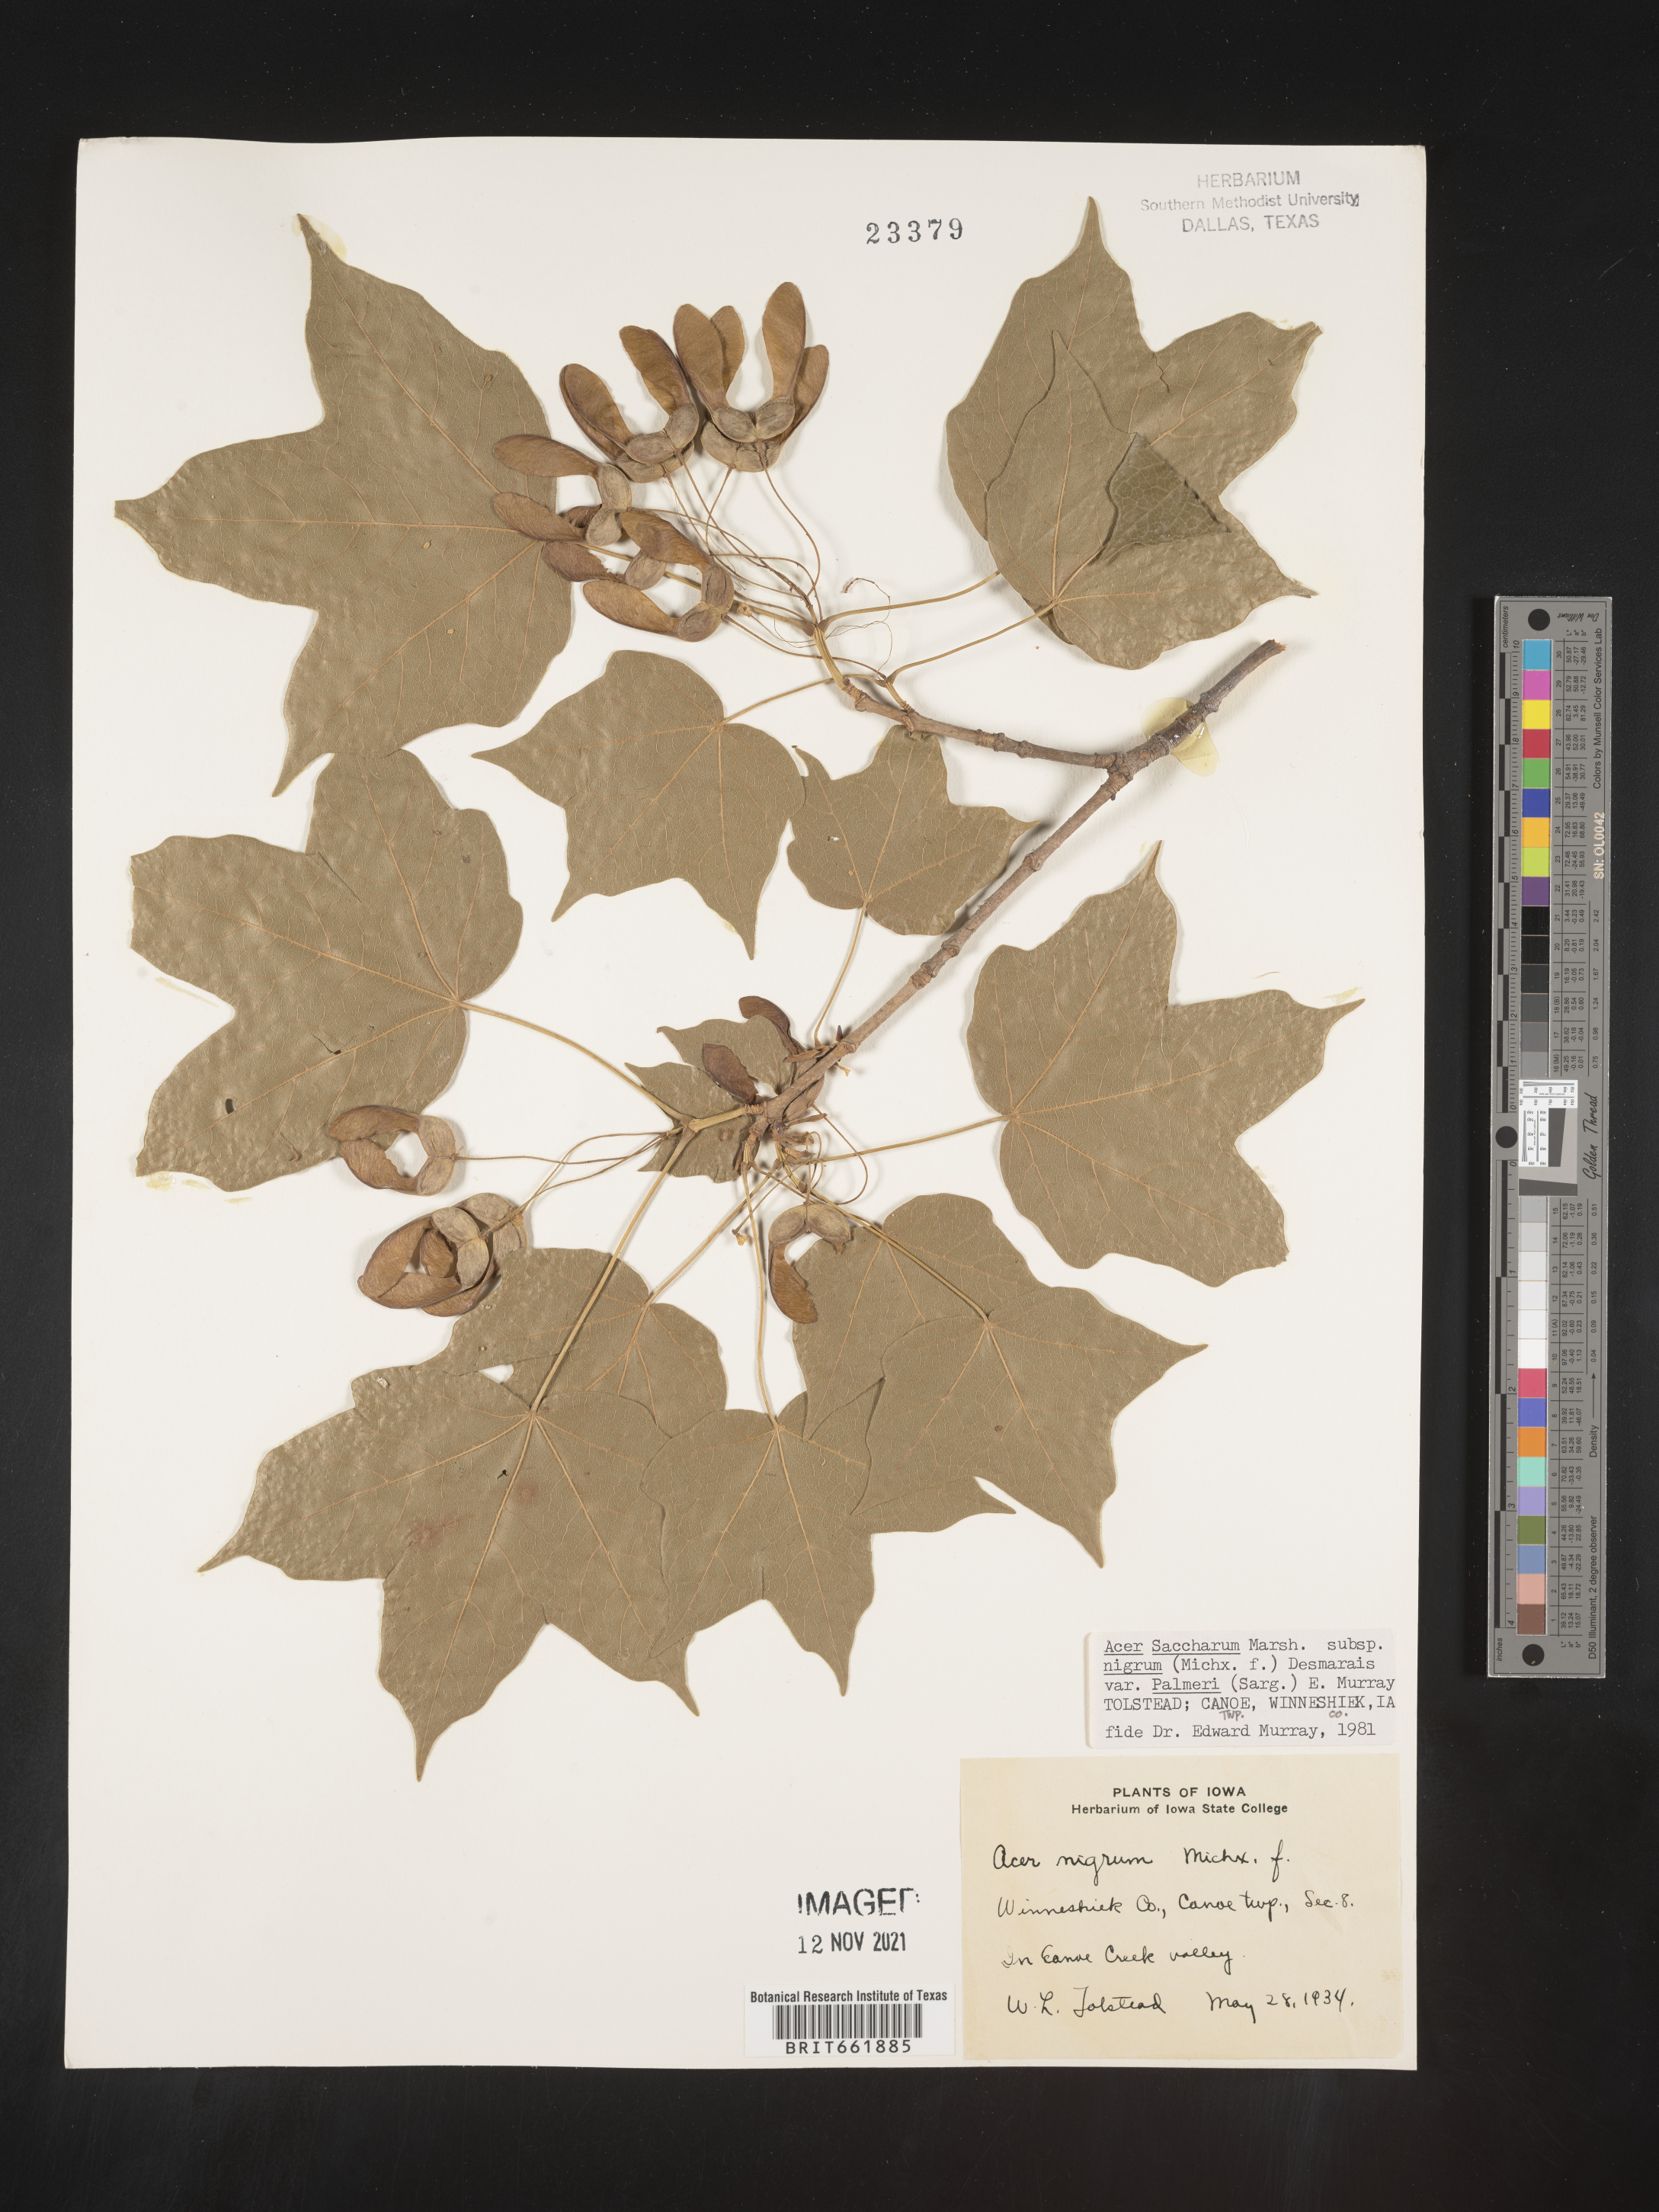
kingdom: Plantae
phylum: Tracheophyta
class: Magnoliopsida
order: Sapindales
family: Sapindaceae
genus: Acer
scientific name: Acer nigrum
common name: Black maple
